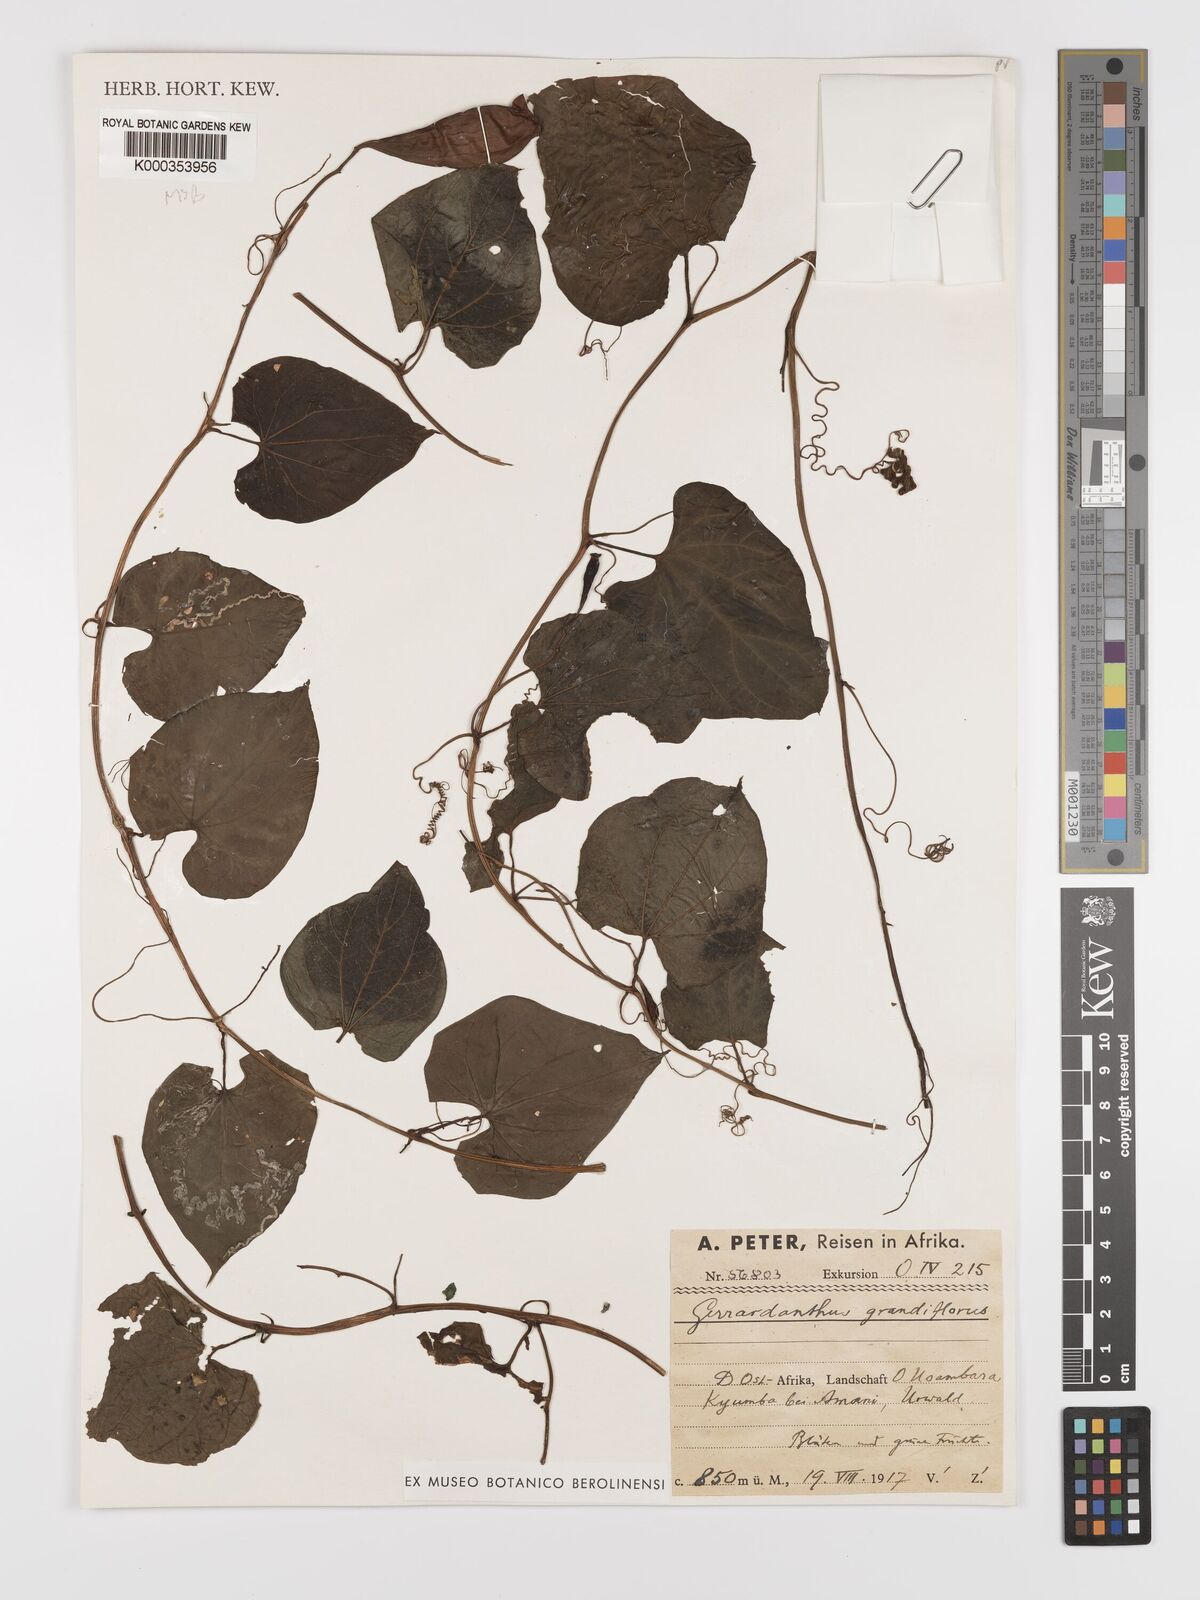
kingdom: Plantae
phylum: Tracheophyta
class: Magnoliopsida
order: Cucurbitales
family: Cucurbitaceae
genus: Gerrardanthus
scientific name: Gerrardanthus
